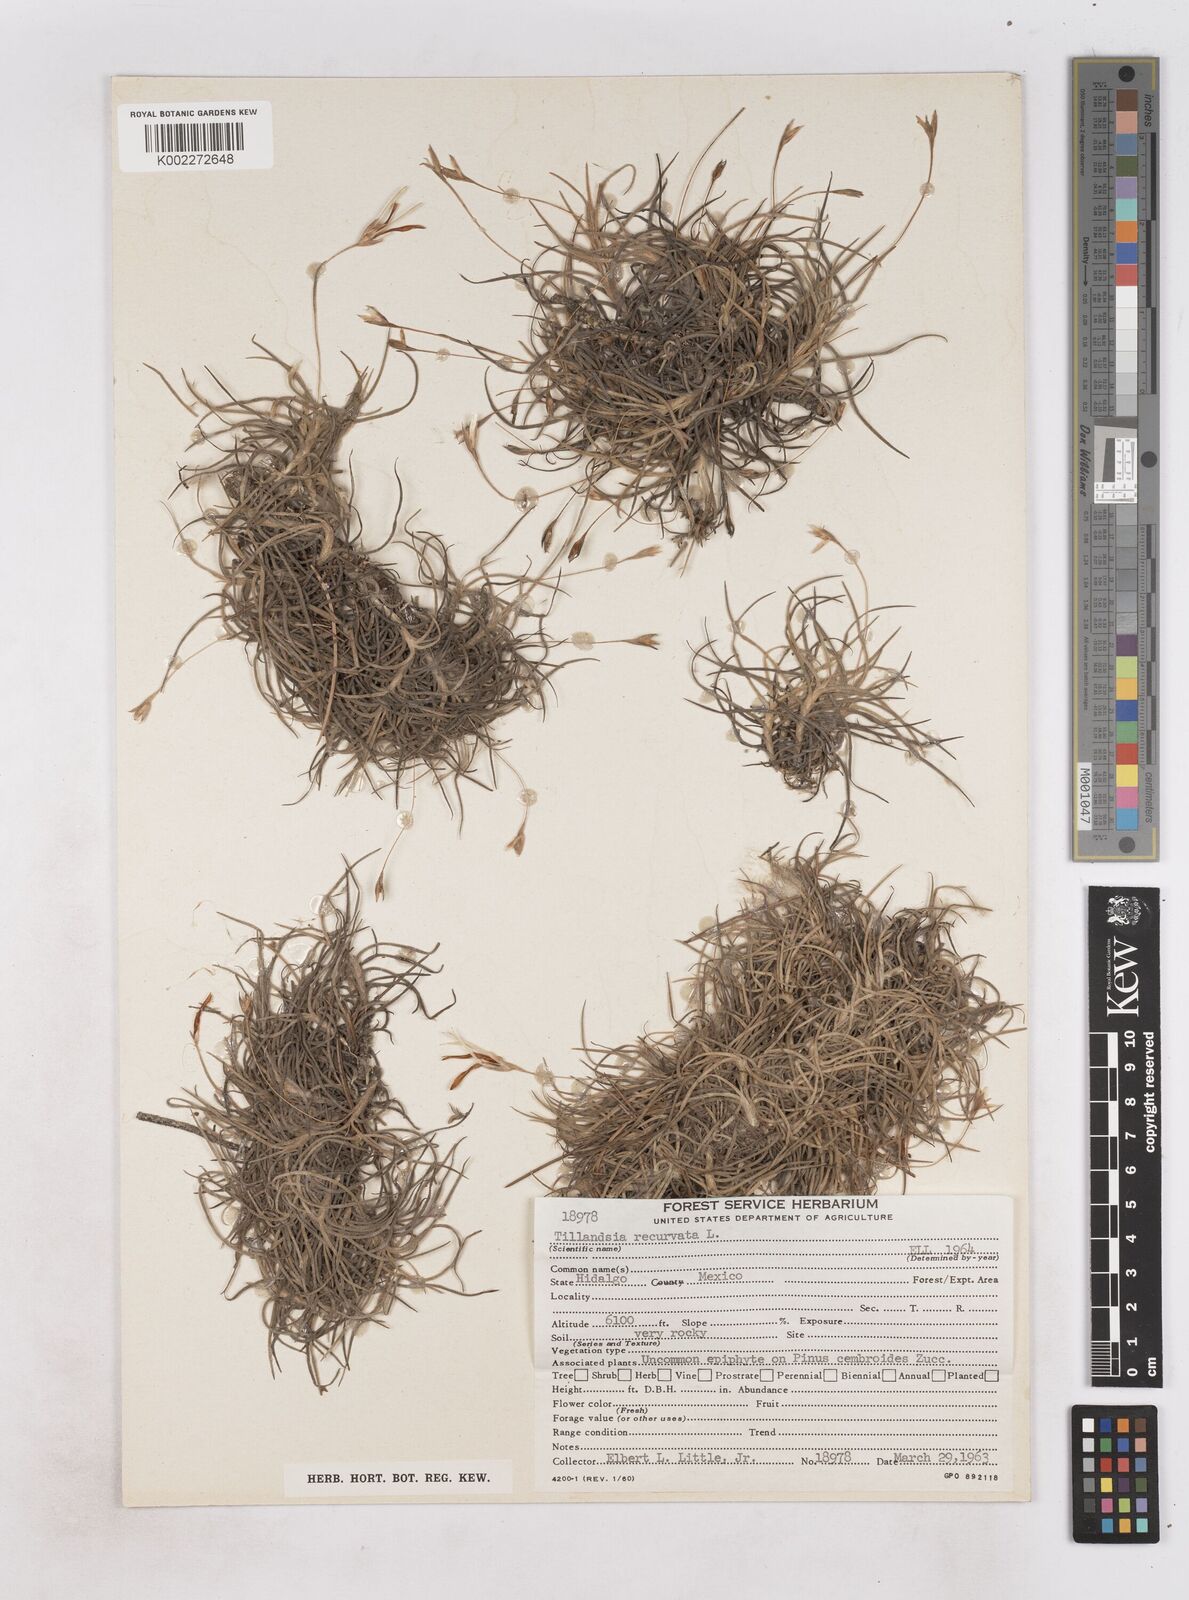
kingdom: Plantae
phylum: Tracheophyta
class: Liliopsida
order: Poales
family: Bromeliaceae
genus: Tillandsia
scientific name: Tillandsia recurvata
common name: Small ballmoss
